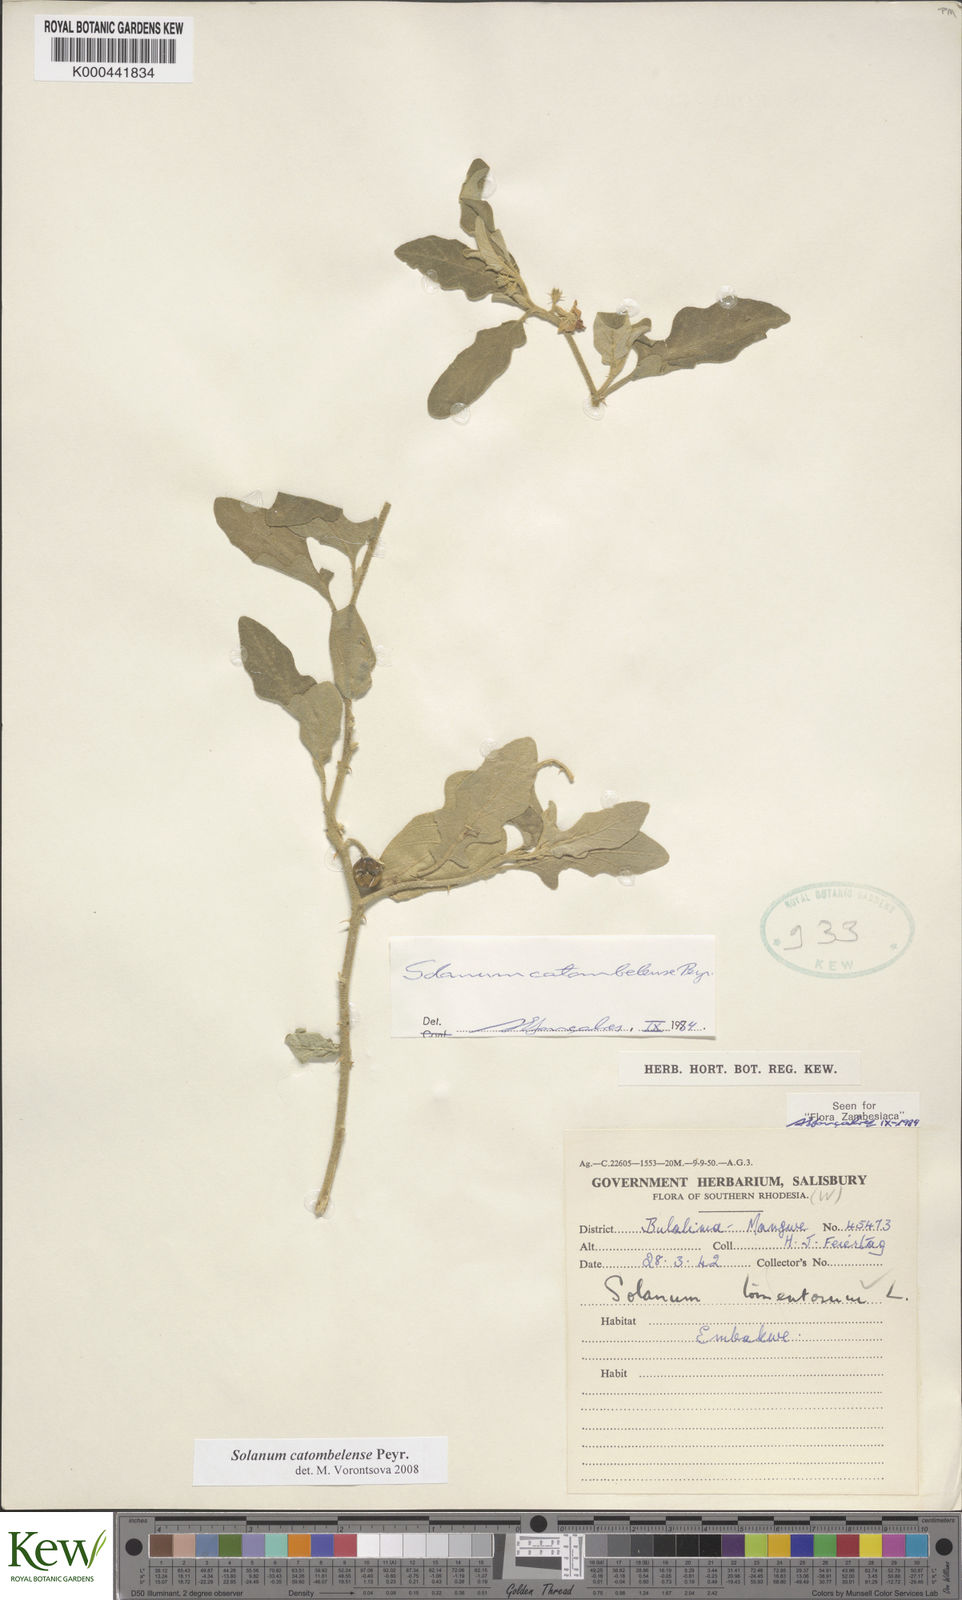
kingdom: Plantae
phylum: Tracheophyta
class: Magnoliopsida
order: Solanales
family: Solanaceae
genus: Solanum
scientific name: Solanum catombelense
